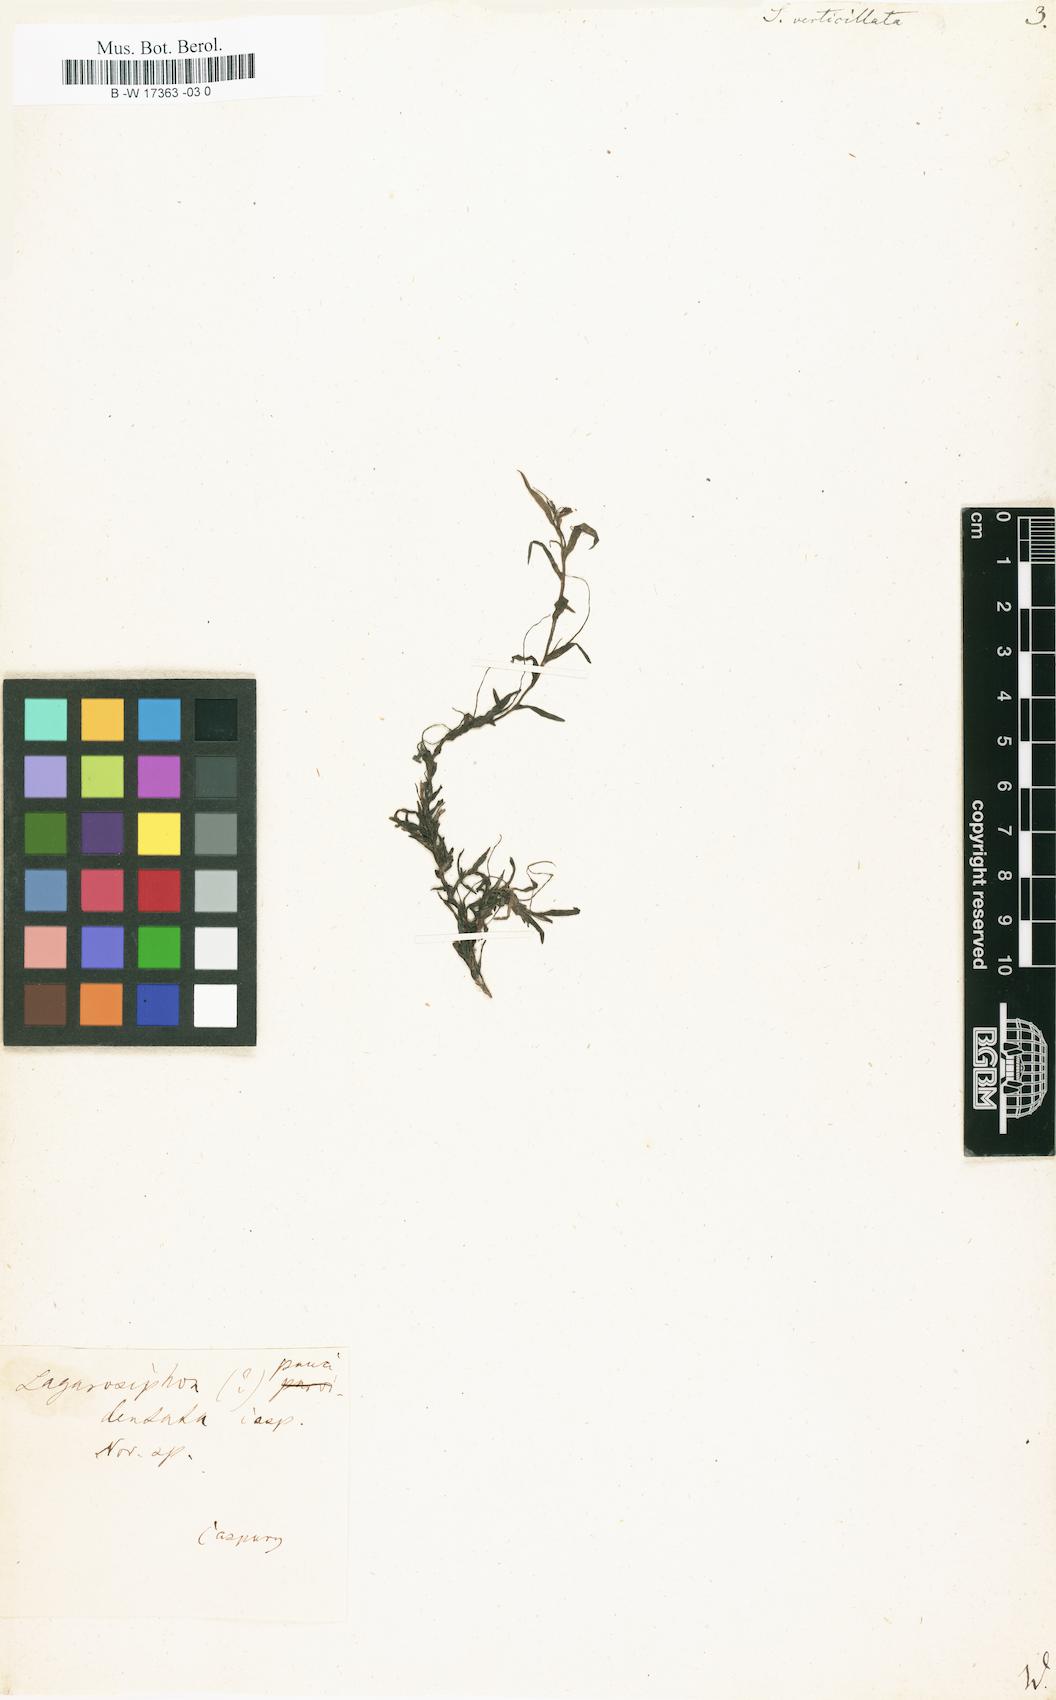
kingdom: Plantae
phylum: Tracheophyta
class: Liliopsida
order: Alismatales
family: Hydrocharitaceae
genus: Hydrilla
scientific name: Hydrilla verticillata
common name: Florida-elodea
